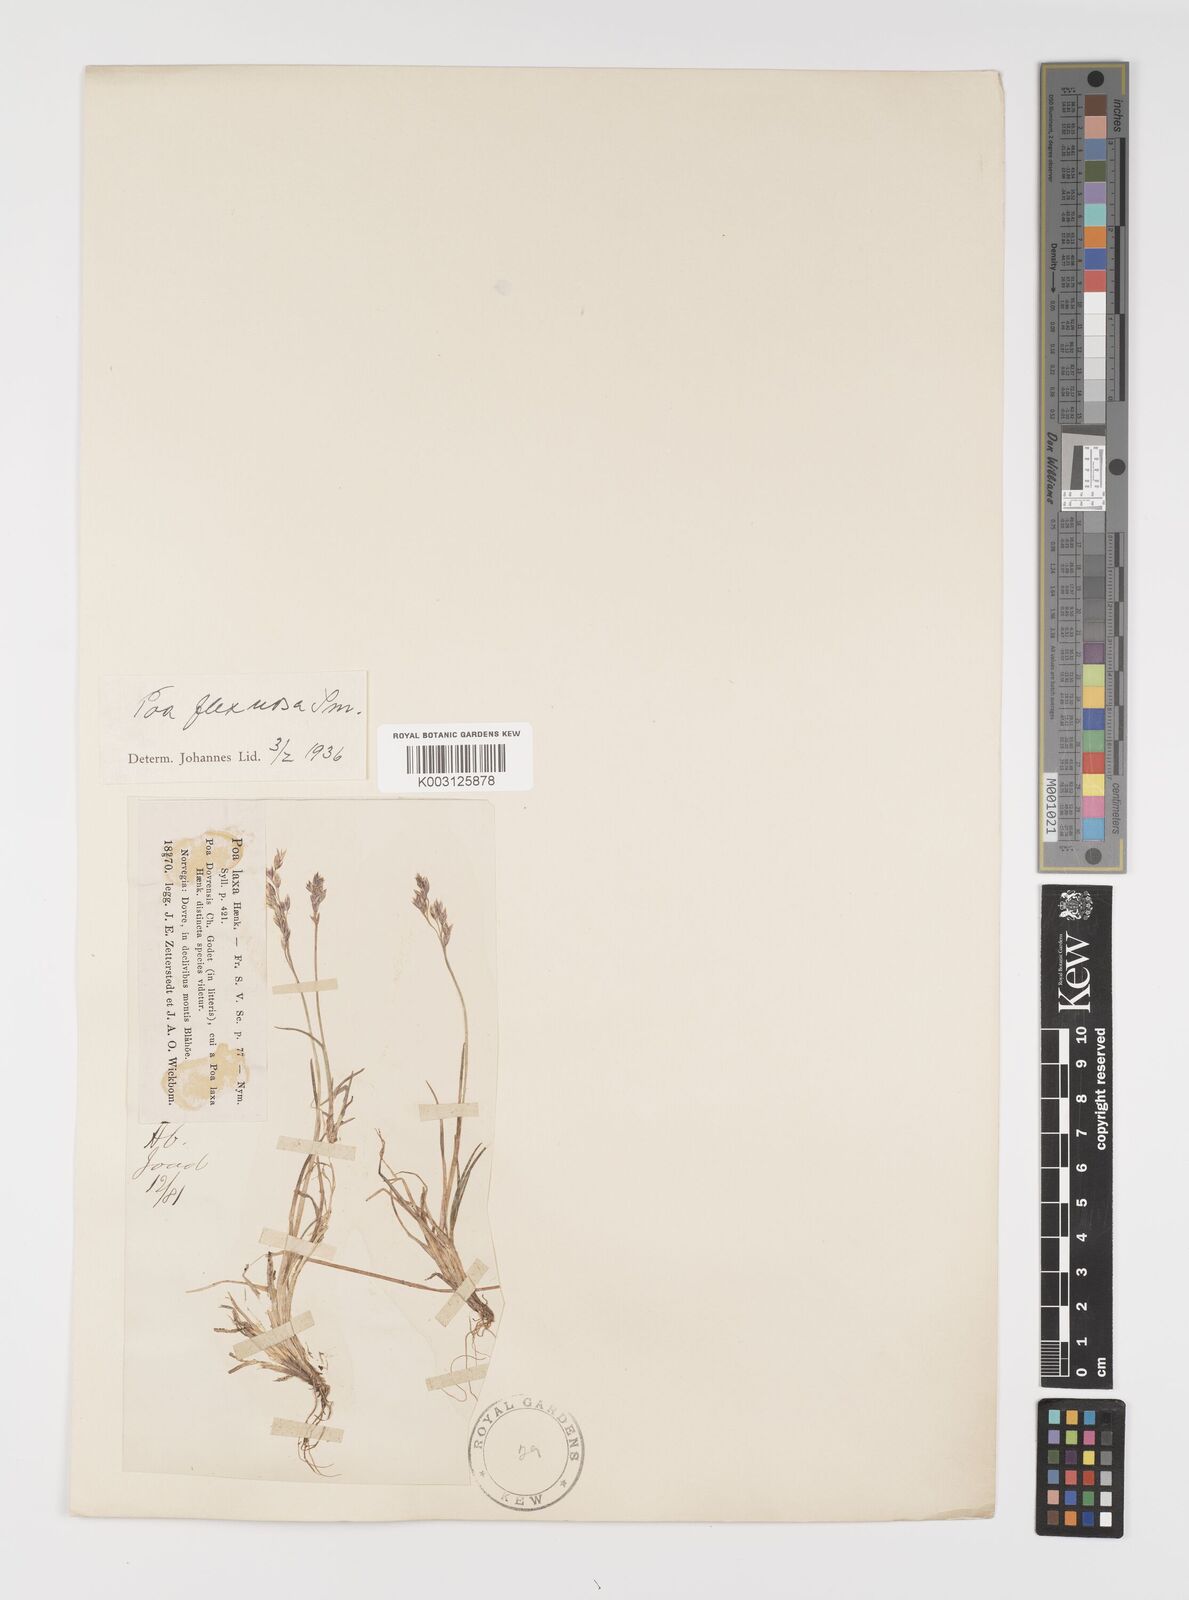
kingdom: Plantae
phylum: Tracheophyta
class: Liliopsida
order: Poales
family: Poaceae
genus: Eragrostis
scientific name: Eragrostis cilianensis
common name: Stinkgrass
